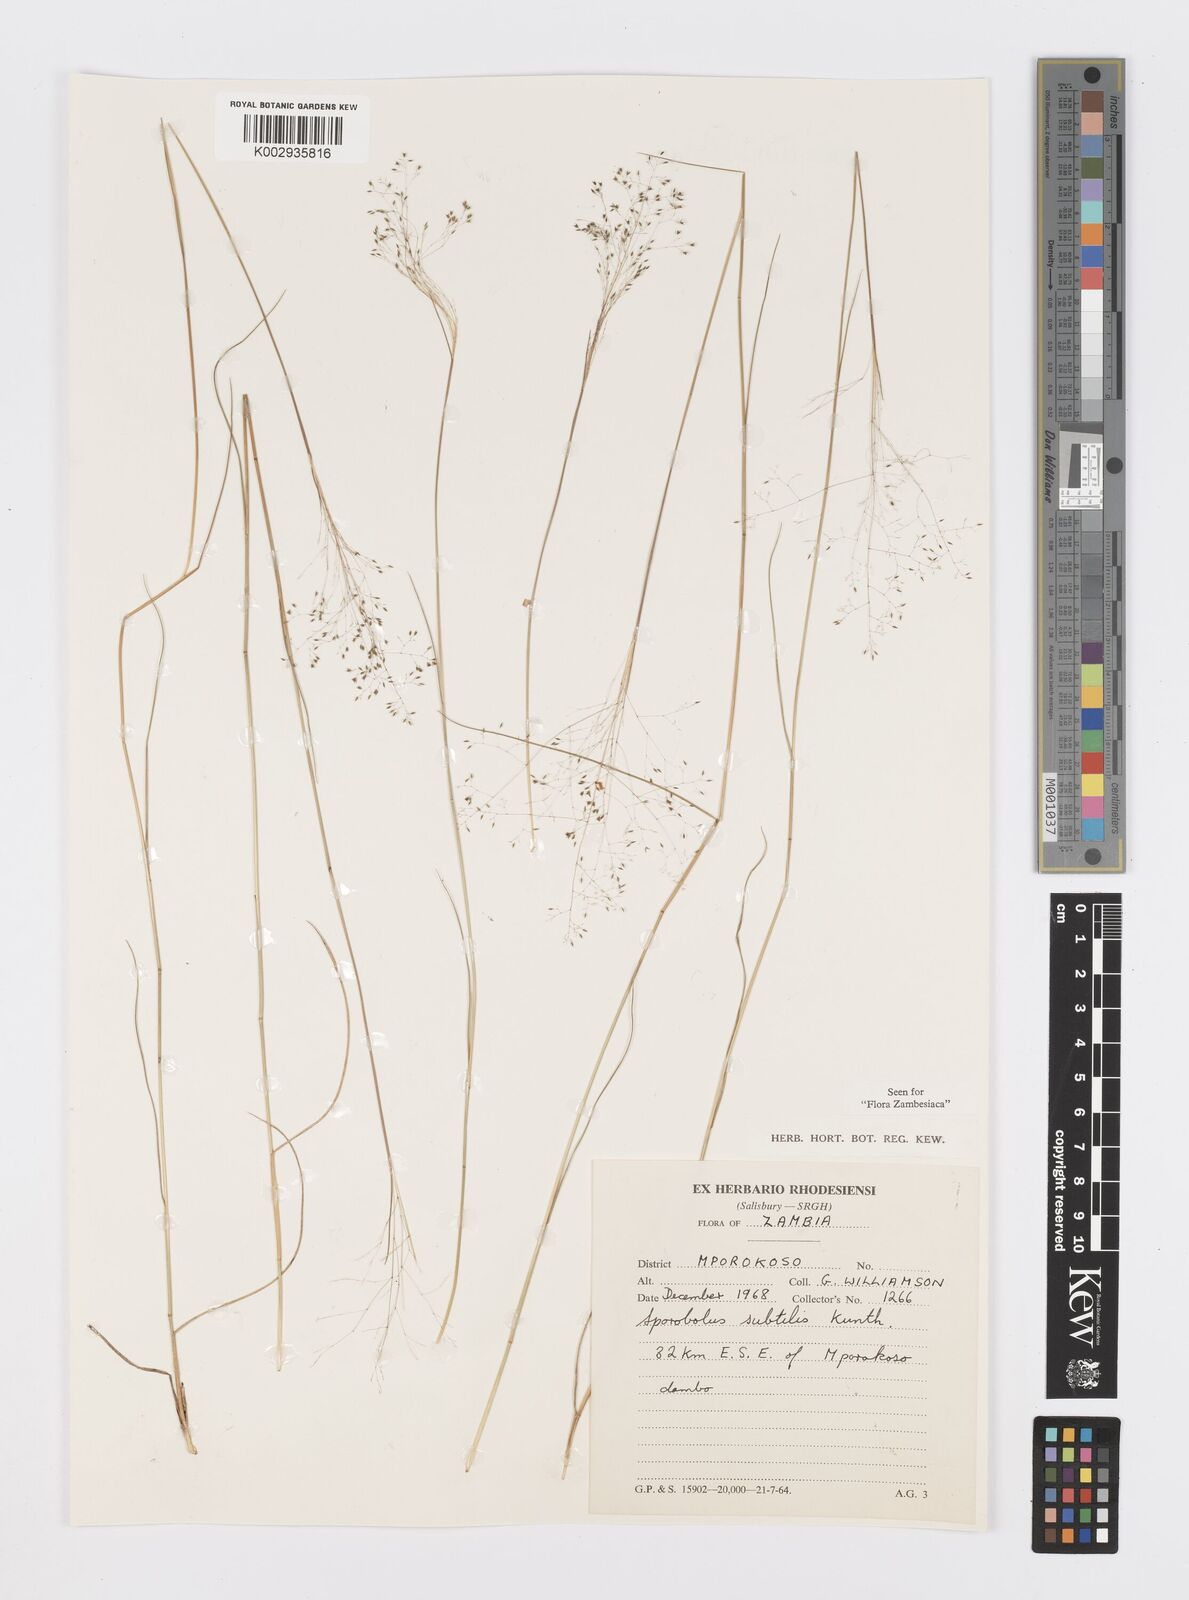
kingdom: Plantae
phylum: Tracheophyta
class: Liliopsida
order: Poales
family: Poaceae
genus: Sporobolus
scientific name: Sporobolus subtilis
